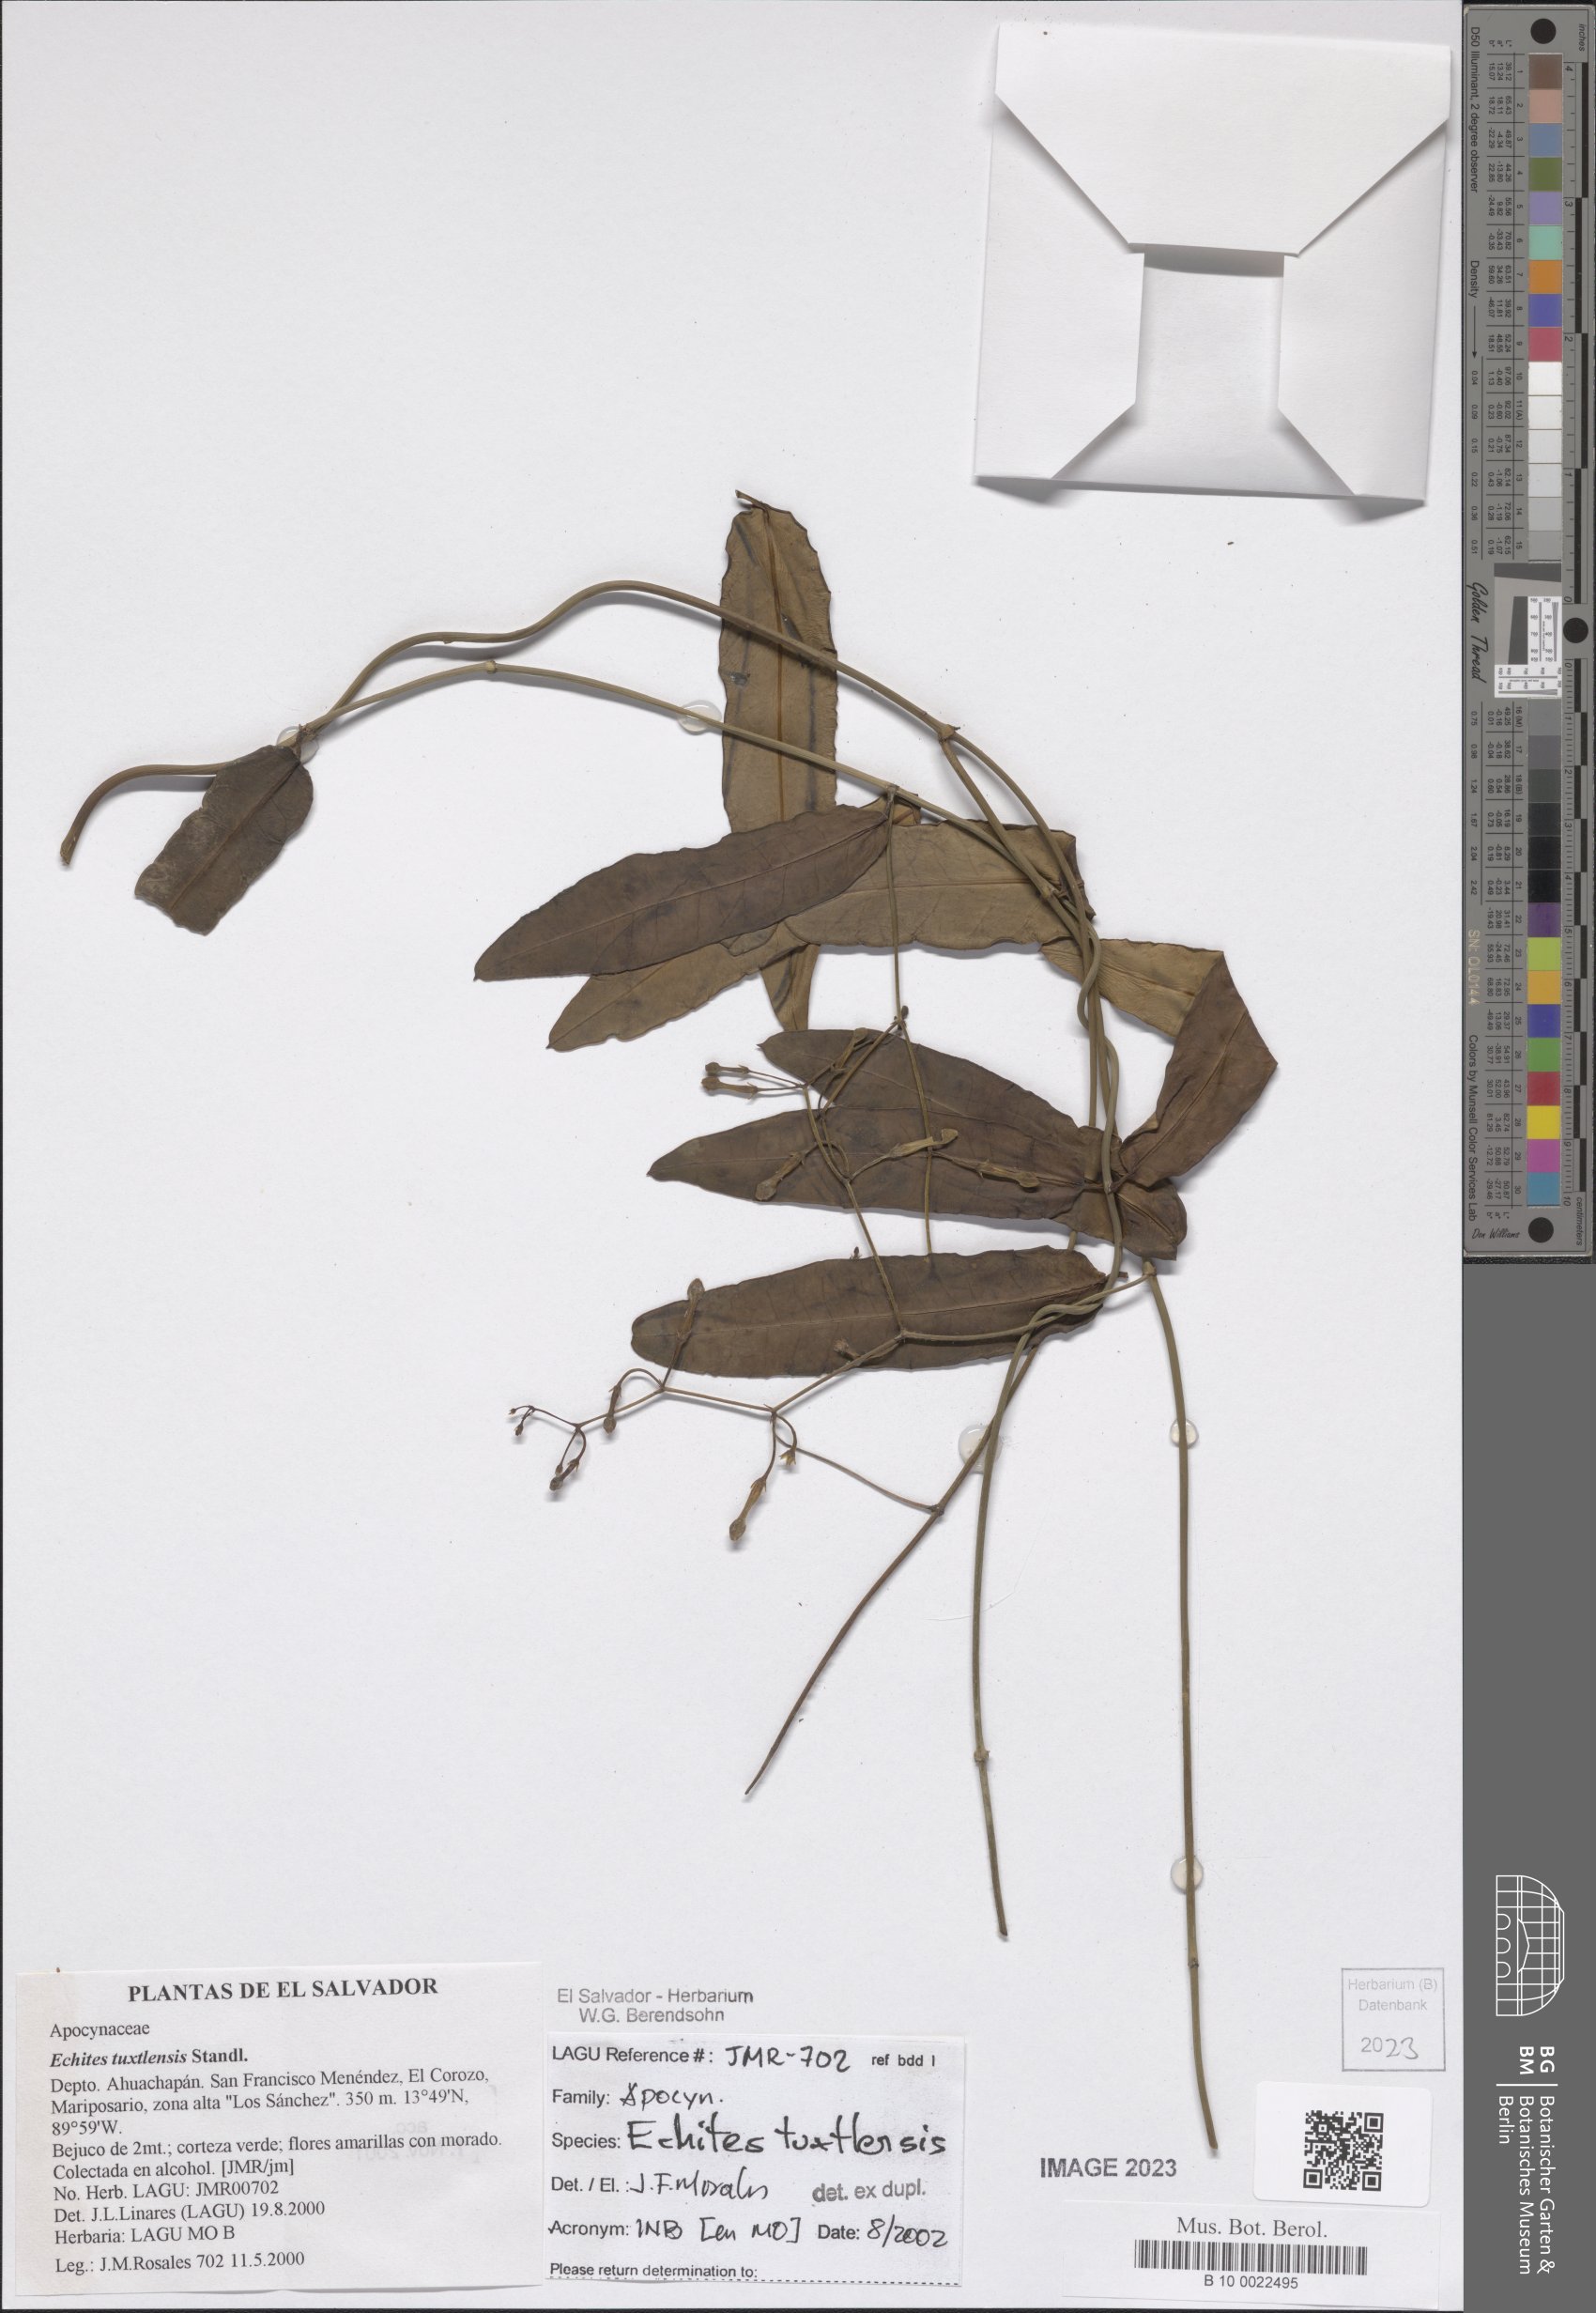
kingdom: Plantae
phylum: Tracheophyta
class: Magnoliopsida
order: Gentianales
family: Apocynaceae
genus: Echites
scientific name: Echites tuxtlensis
